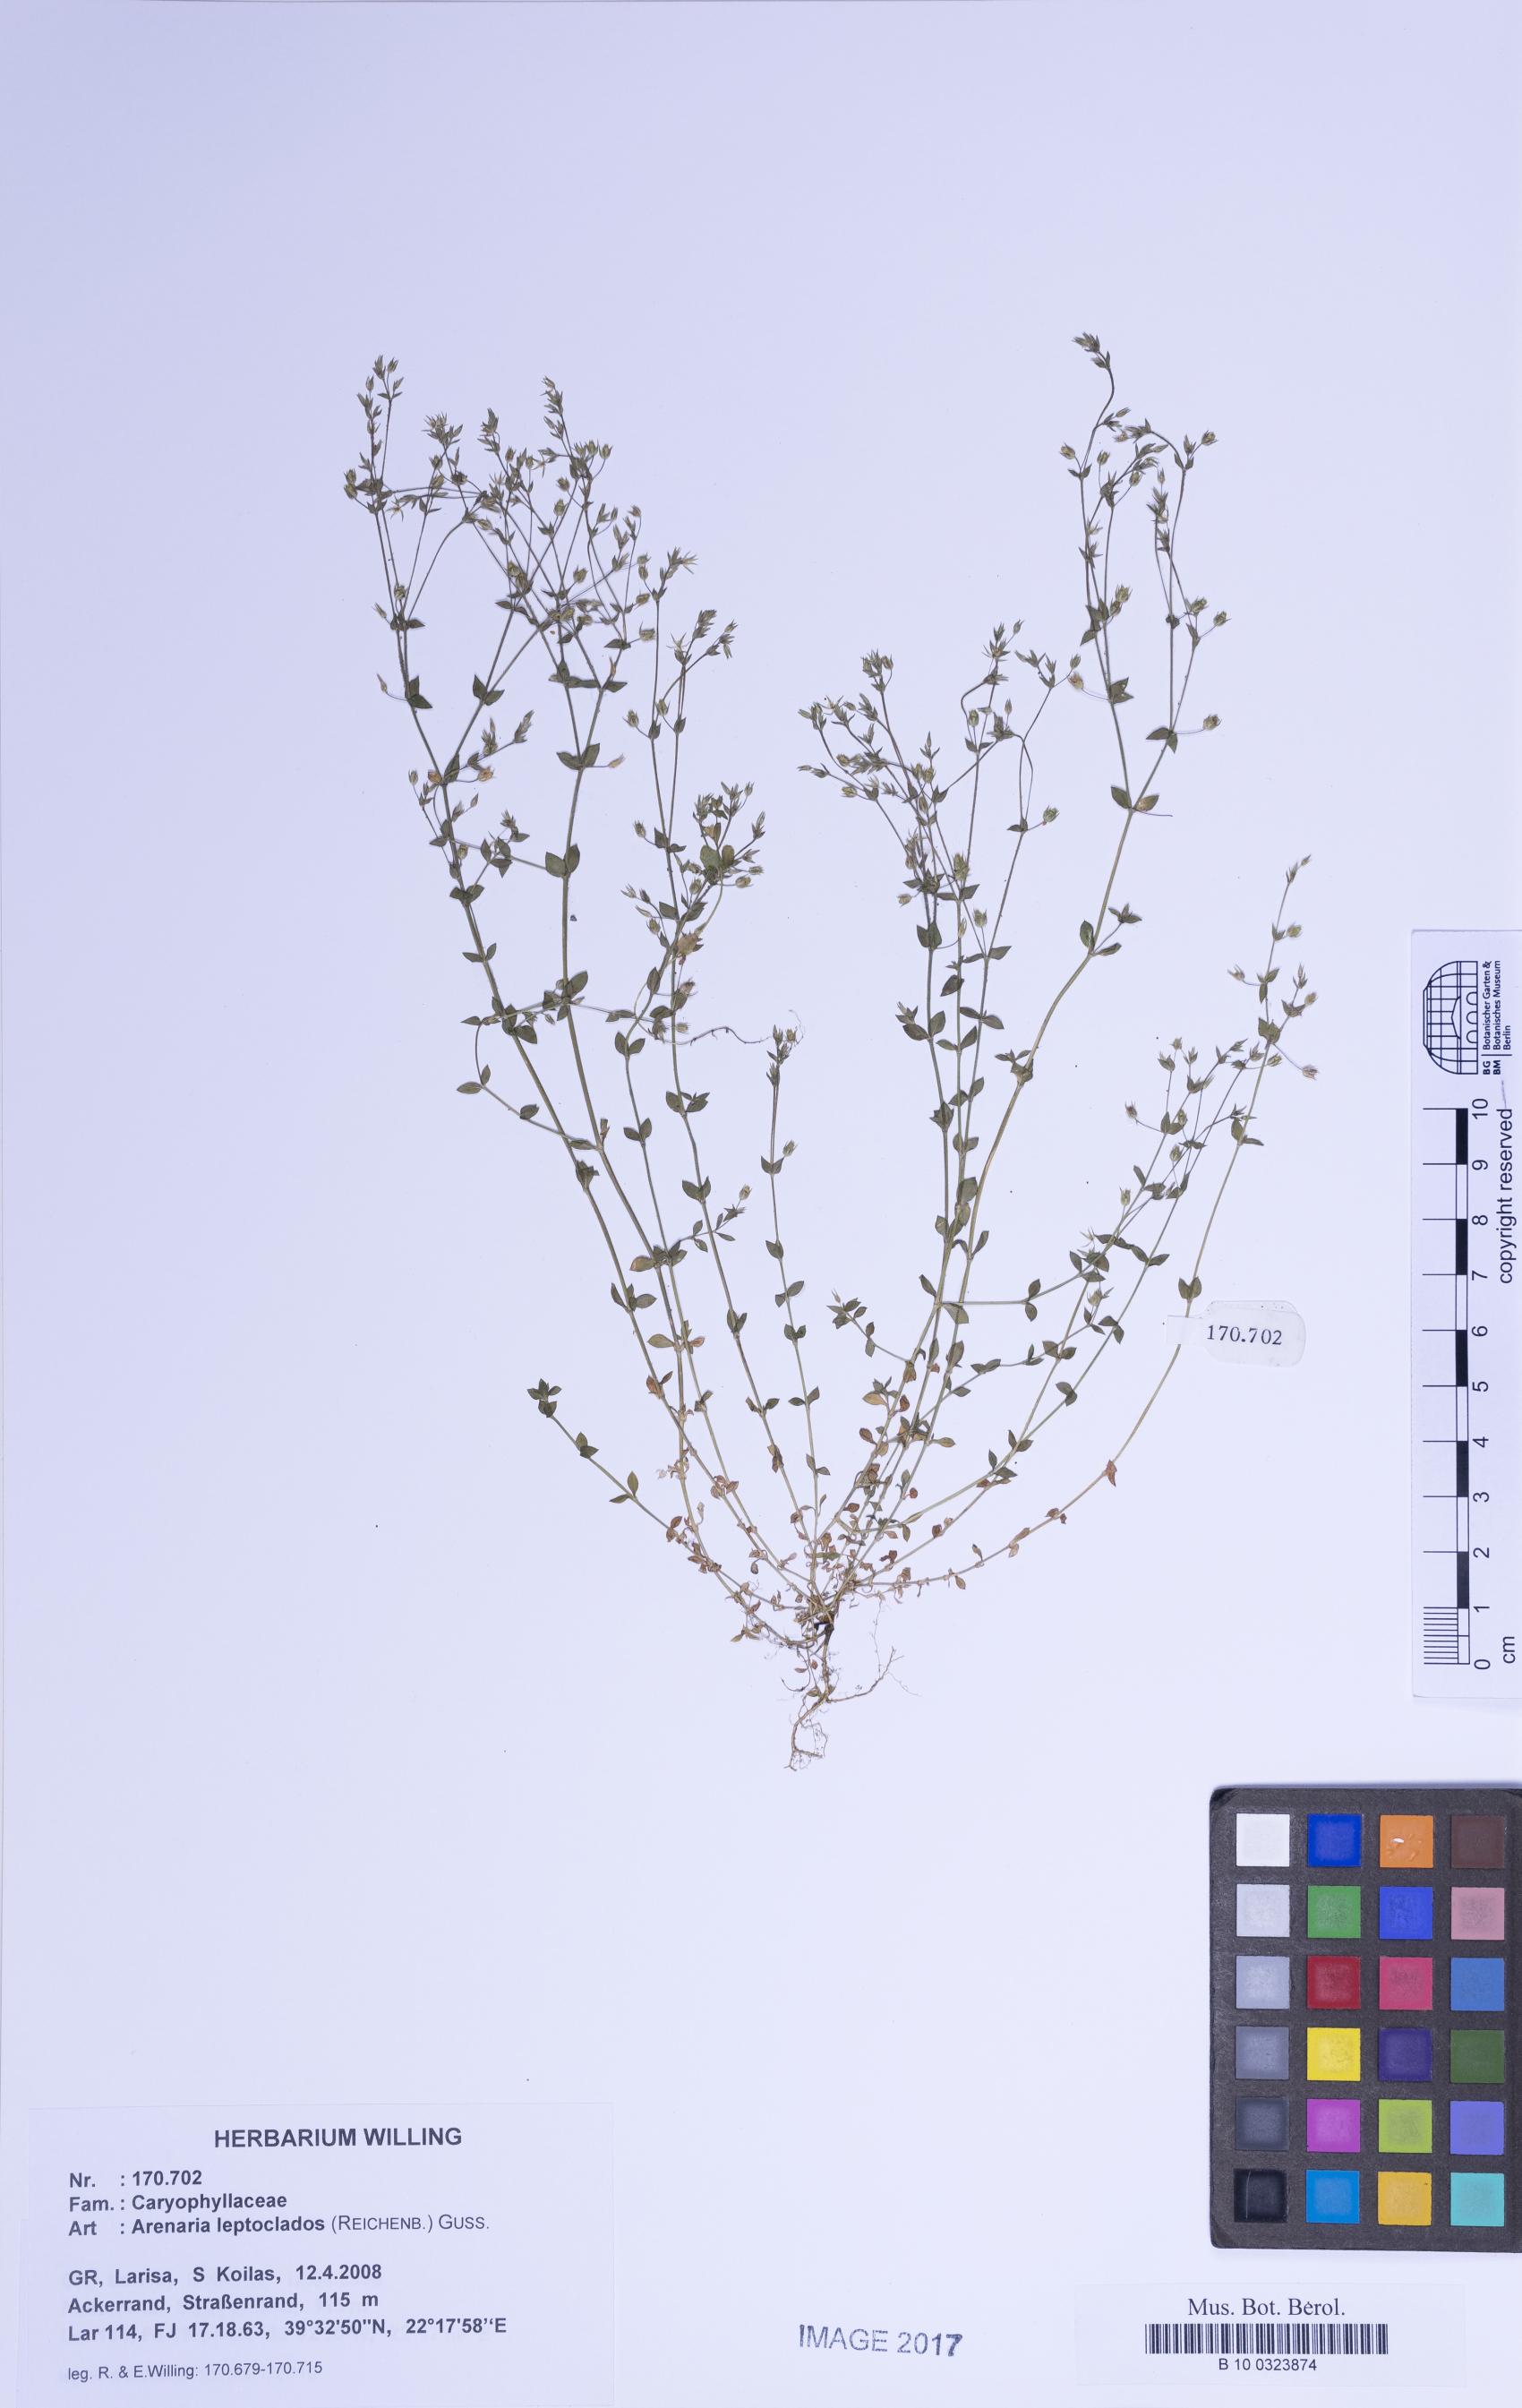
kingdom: Plantae
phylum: Tracheophyta
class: Magnoliopsida
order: Caryophyllales
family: Caryophyllaceae
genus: Arenaria
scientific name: Arenaria leptoclados
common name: Thyme-leaved sandwort
